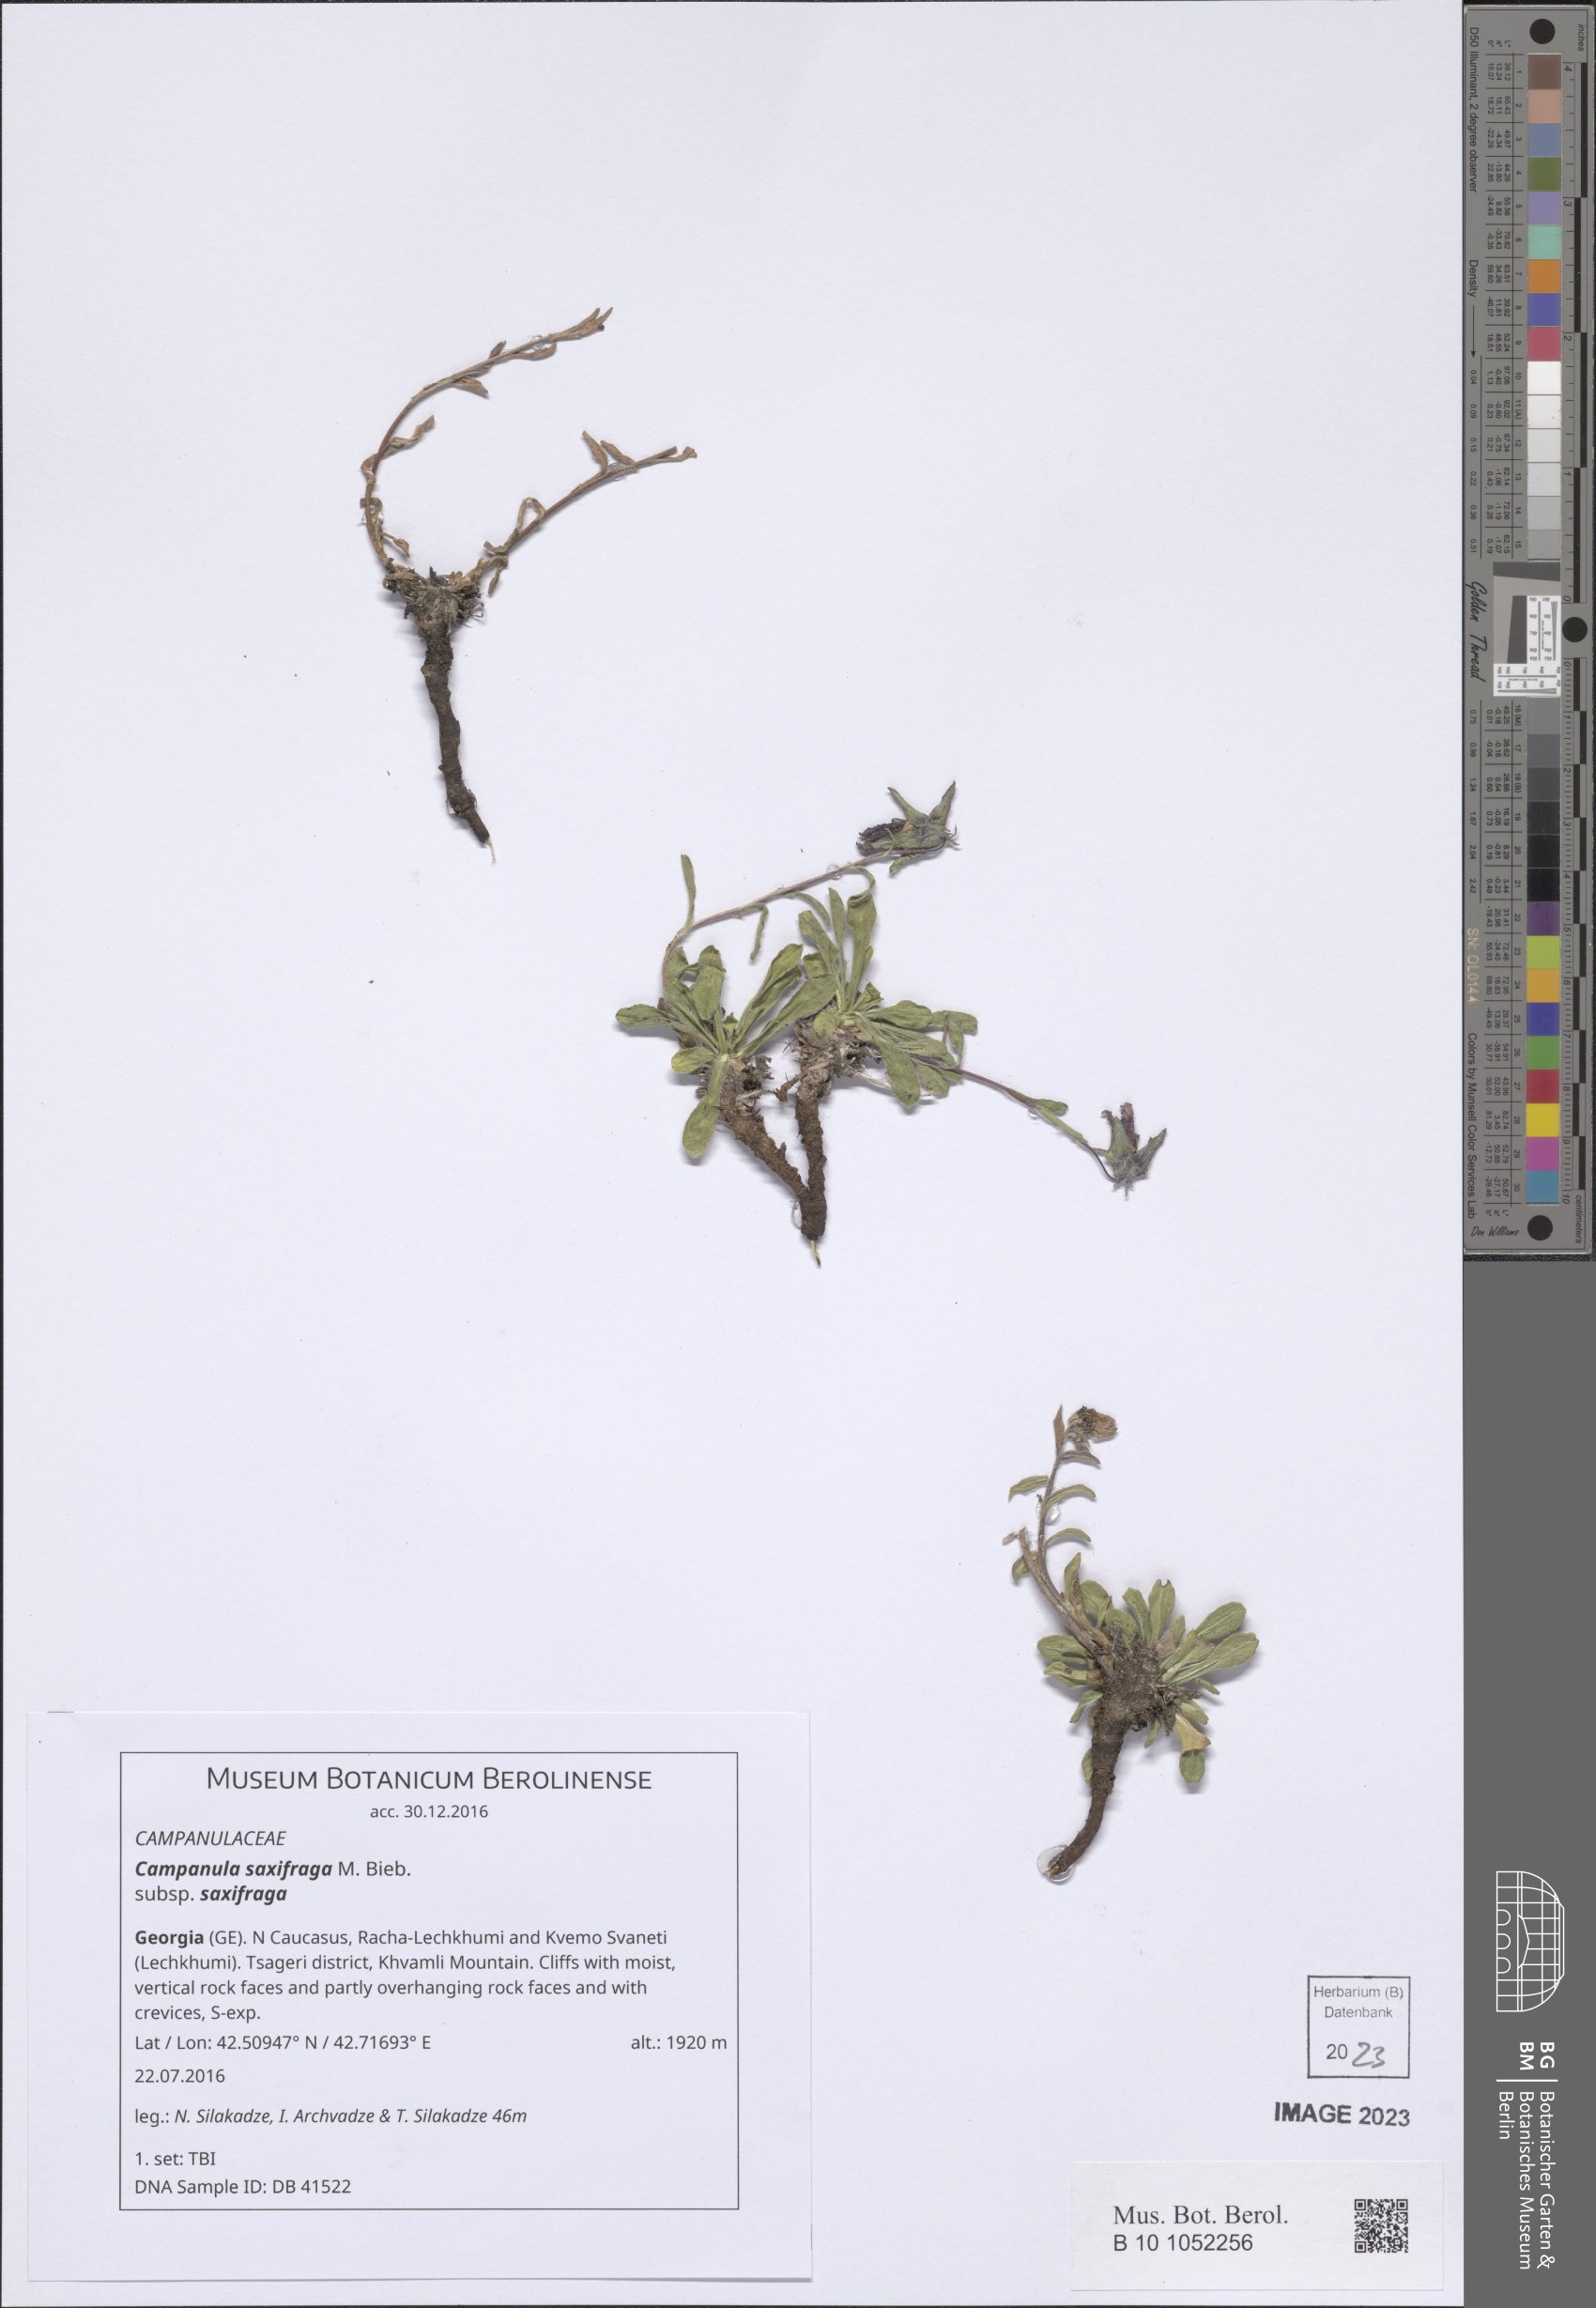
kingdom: Plantae
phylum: Tracheophyta
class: Magnoliopsida
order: Asterales
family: Campanulaceae
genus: Campanula
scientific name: Campanula saxifraga
